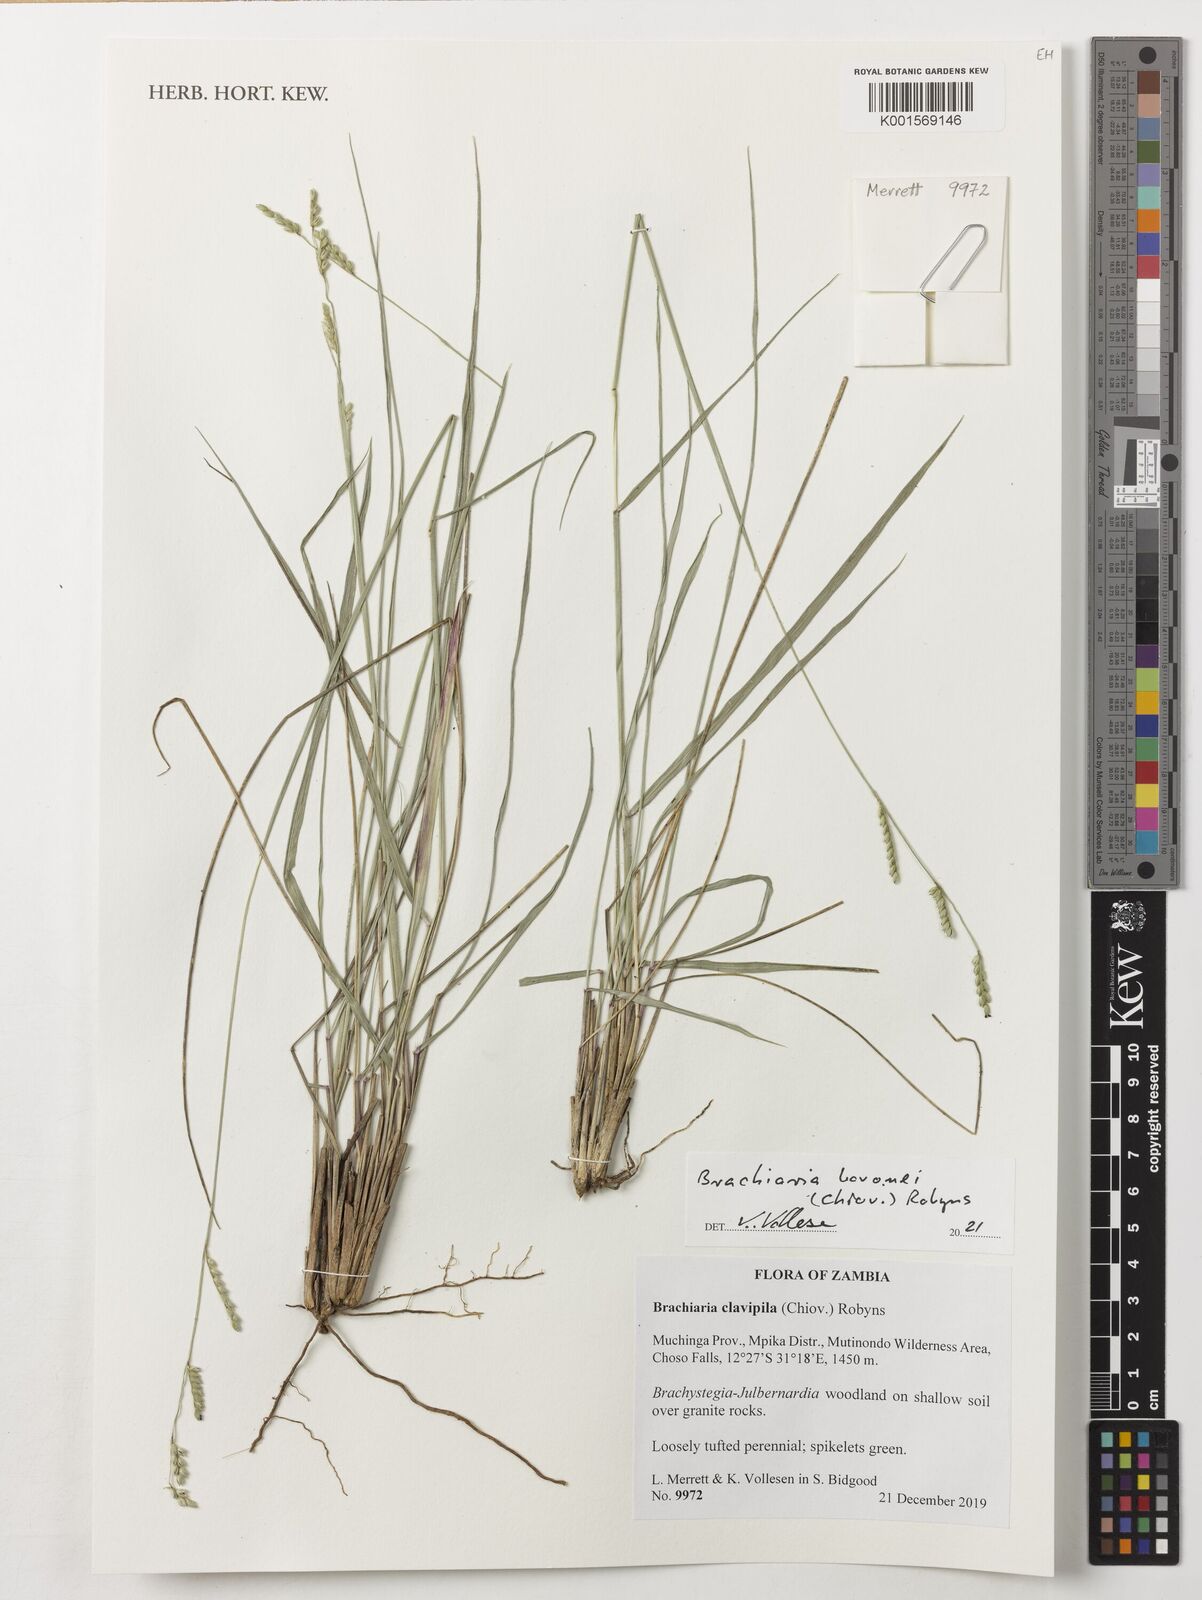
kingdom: Plantae
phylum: Tracheophyta
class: Liliopsida
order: Poales
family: Poaceae
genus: Urochloa
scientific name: Urochloa bovonei
